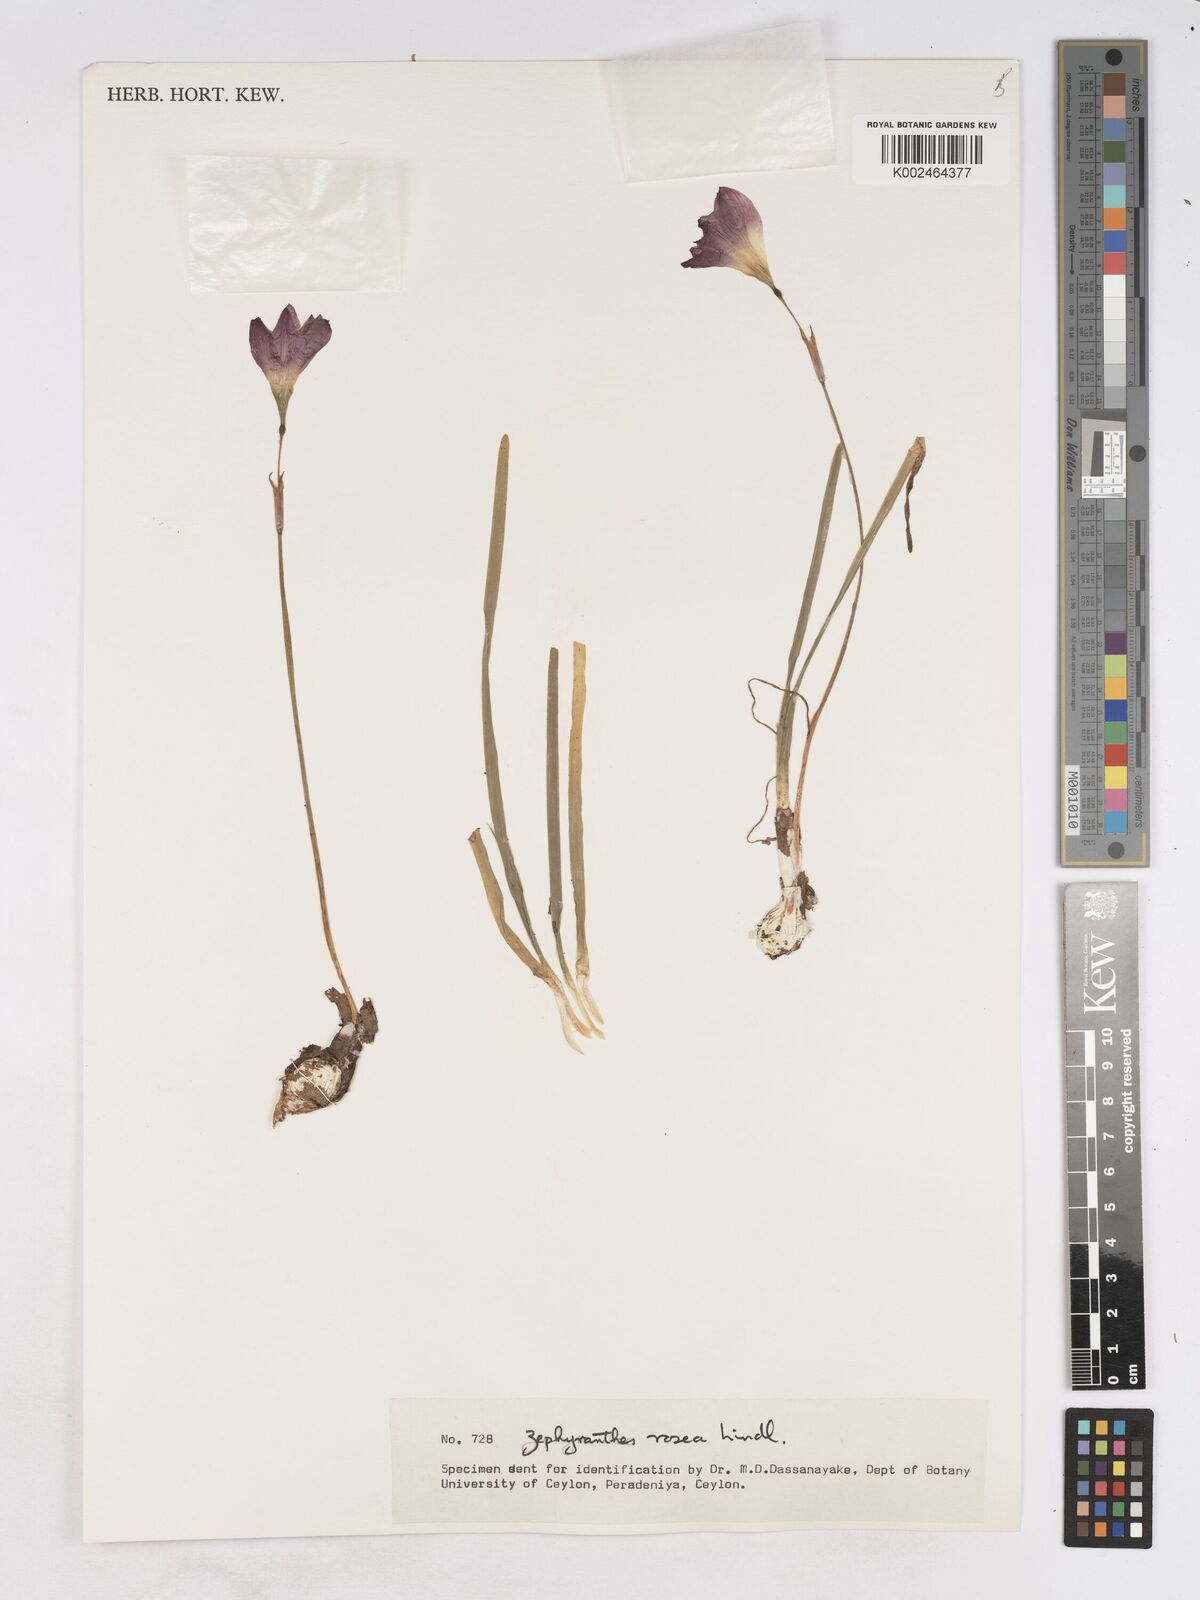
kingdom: Plantae
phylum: Tracheophyta
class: Liliopsida
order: Asparagales
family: Amaryllidaceae
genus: Zephyranthes
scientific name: Zephyranthes rosea
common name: Cuban zephyrlily
